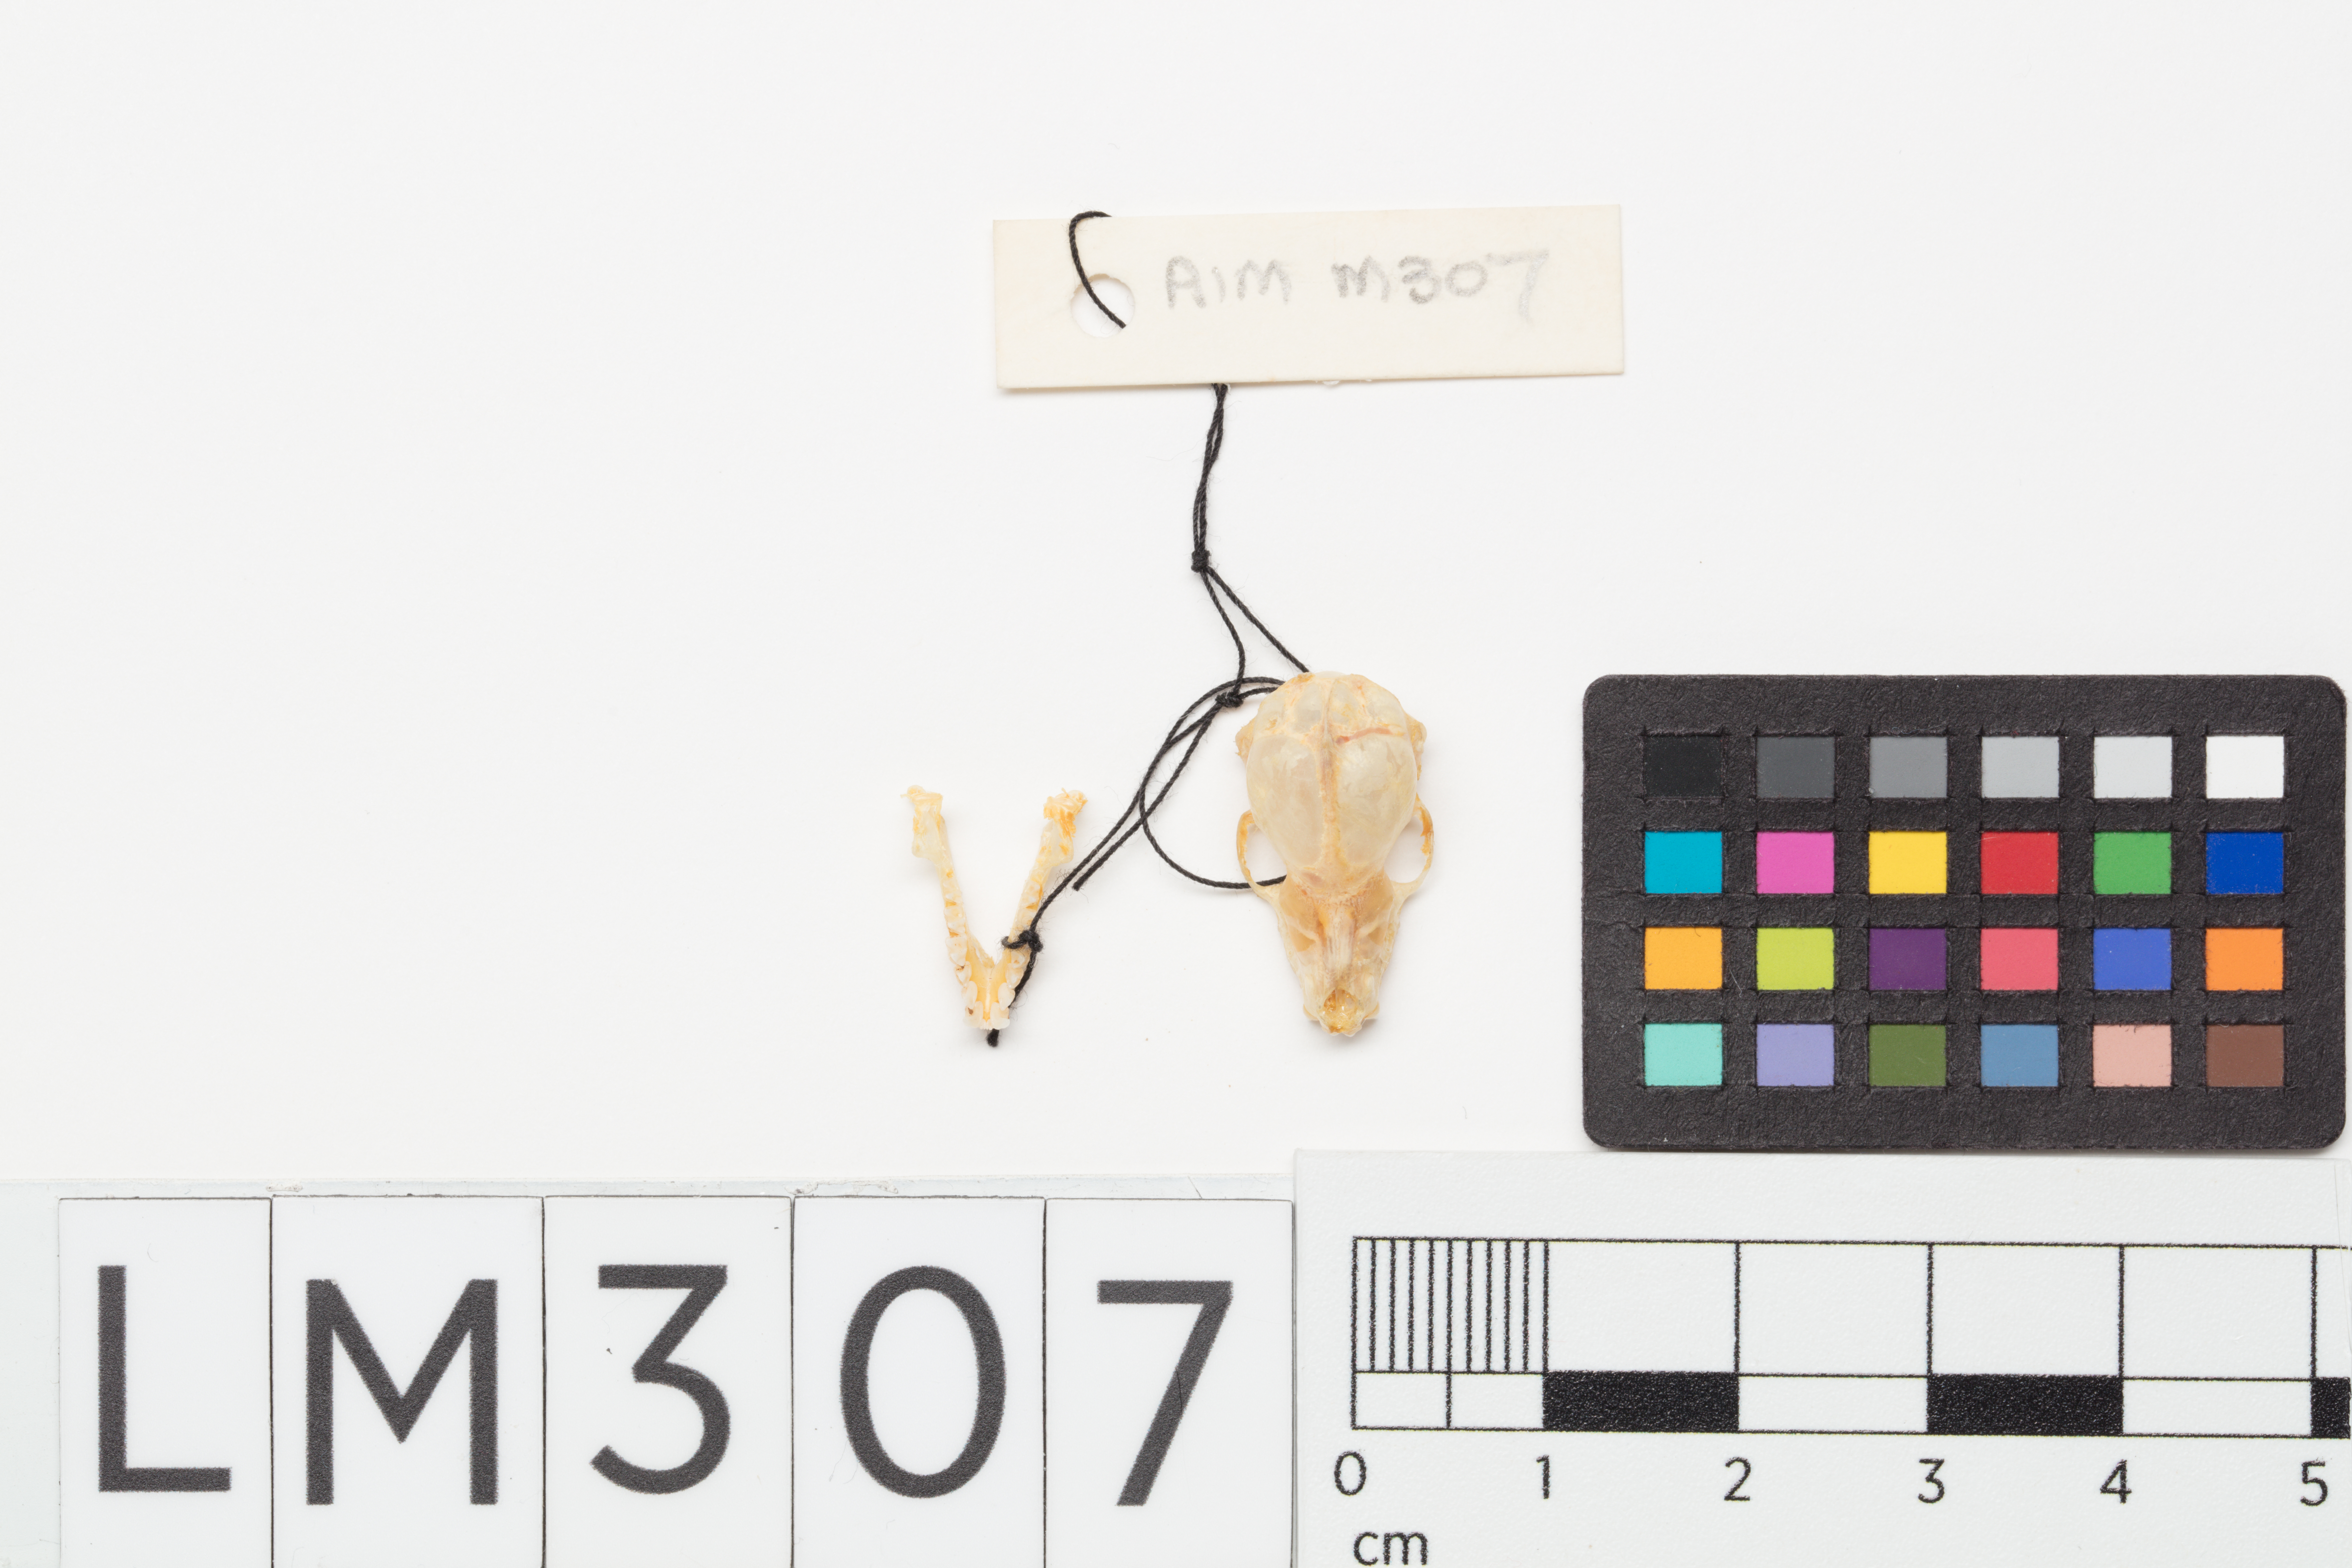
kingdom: Animalia
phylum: Chordata
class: Mammalia
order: Chiroptera
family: Mystacinidae
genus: Mystacina
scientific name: Mystacina tuberculata
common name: New zealand lesser short-tailed bat
